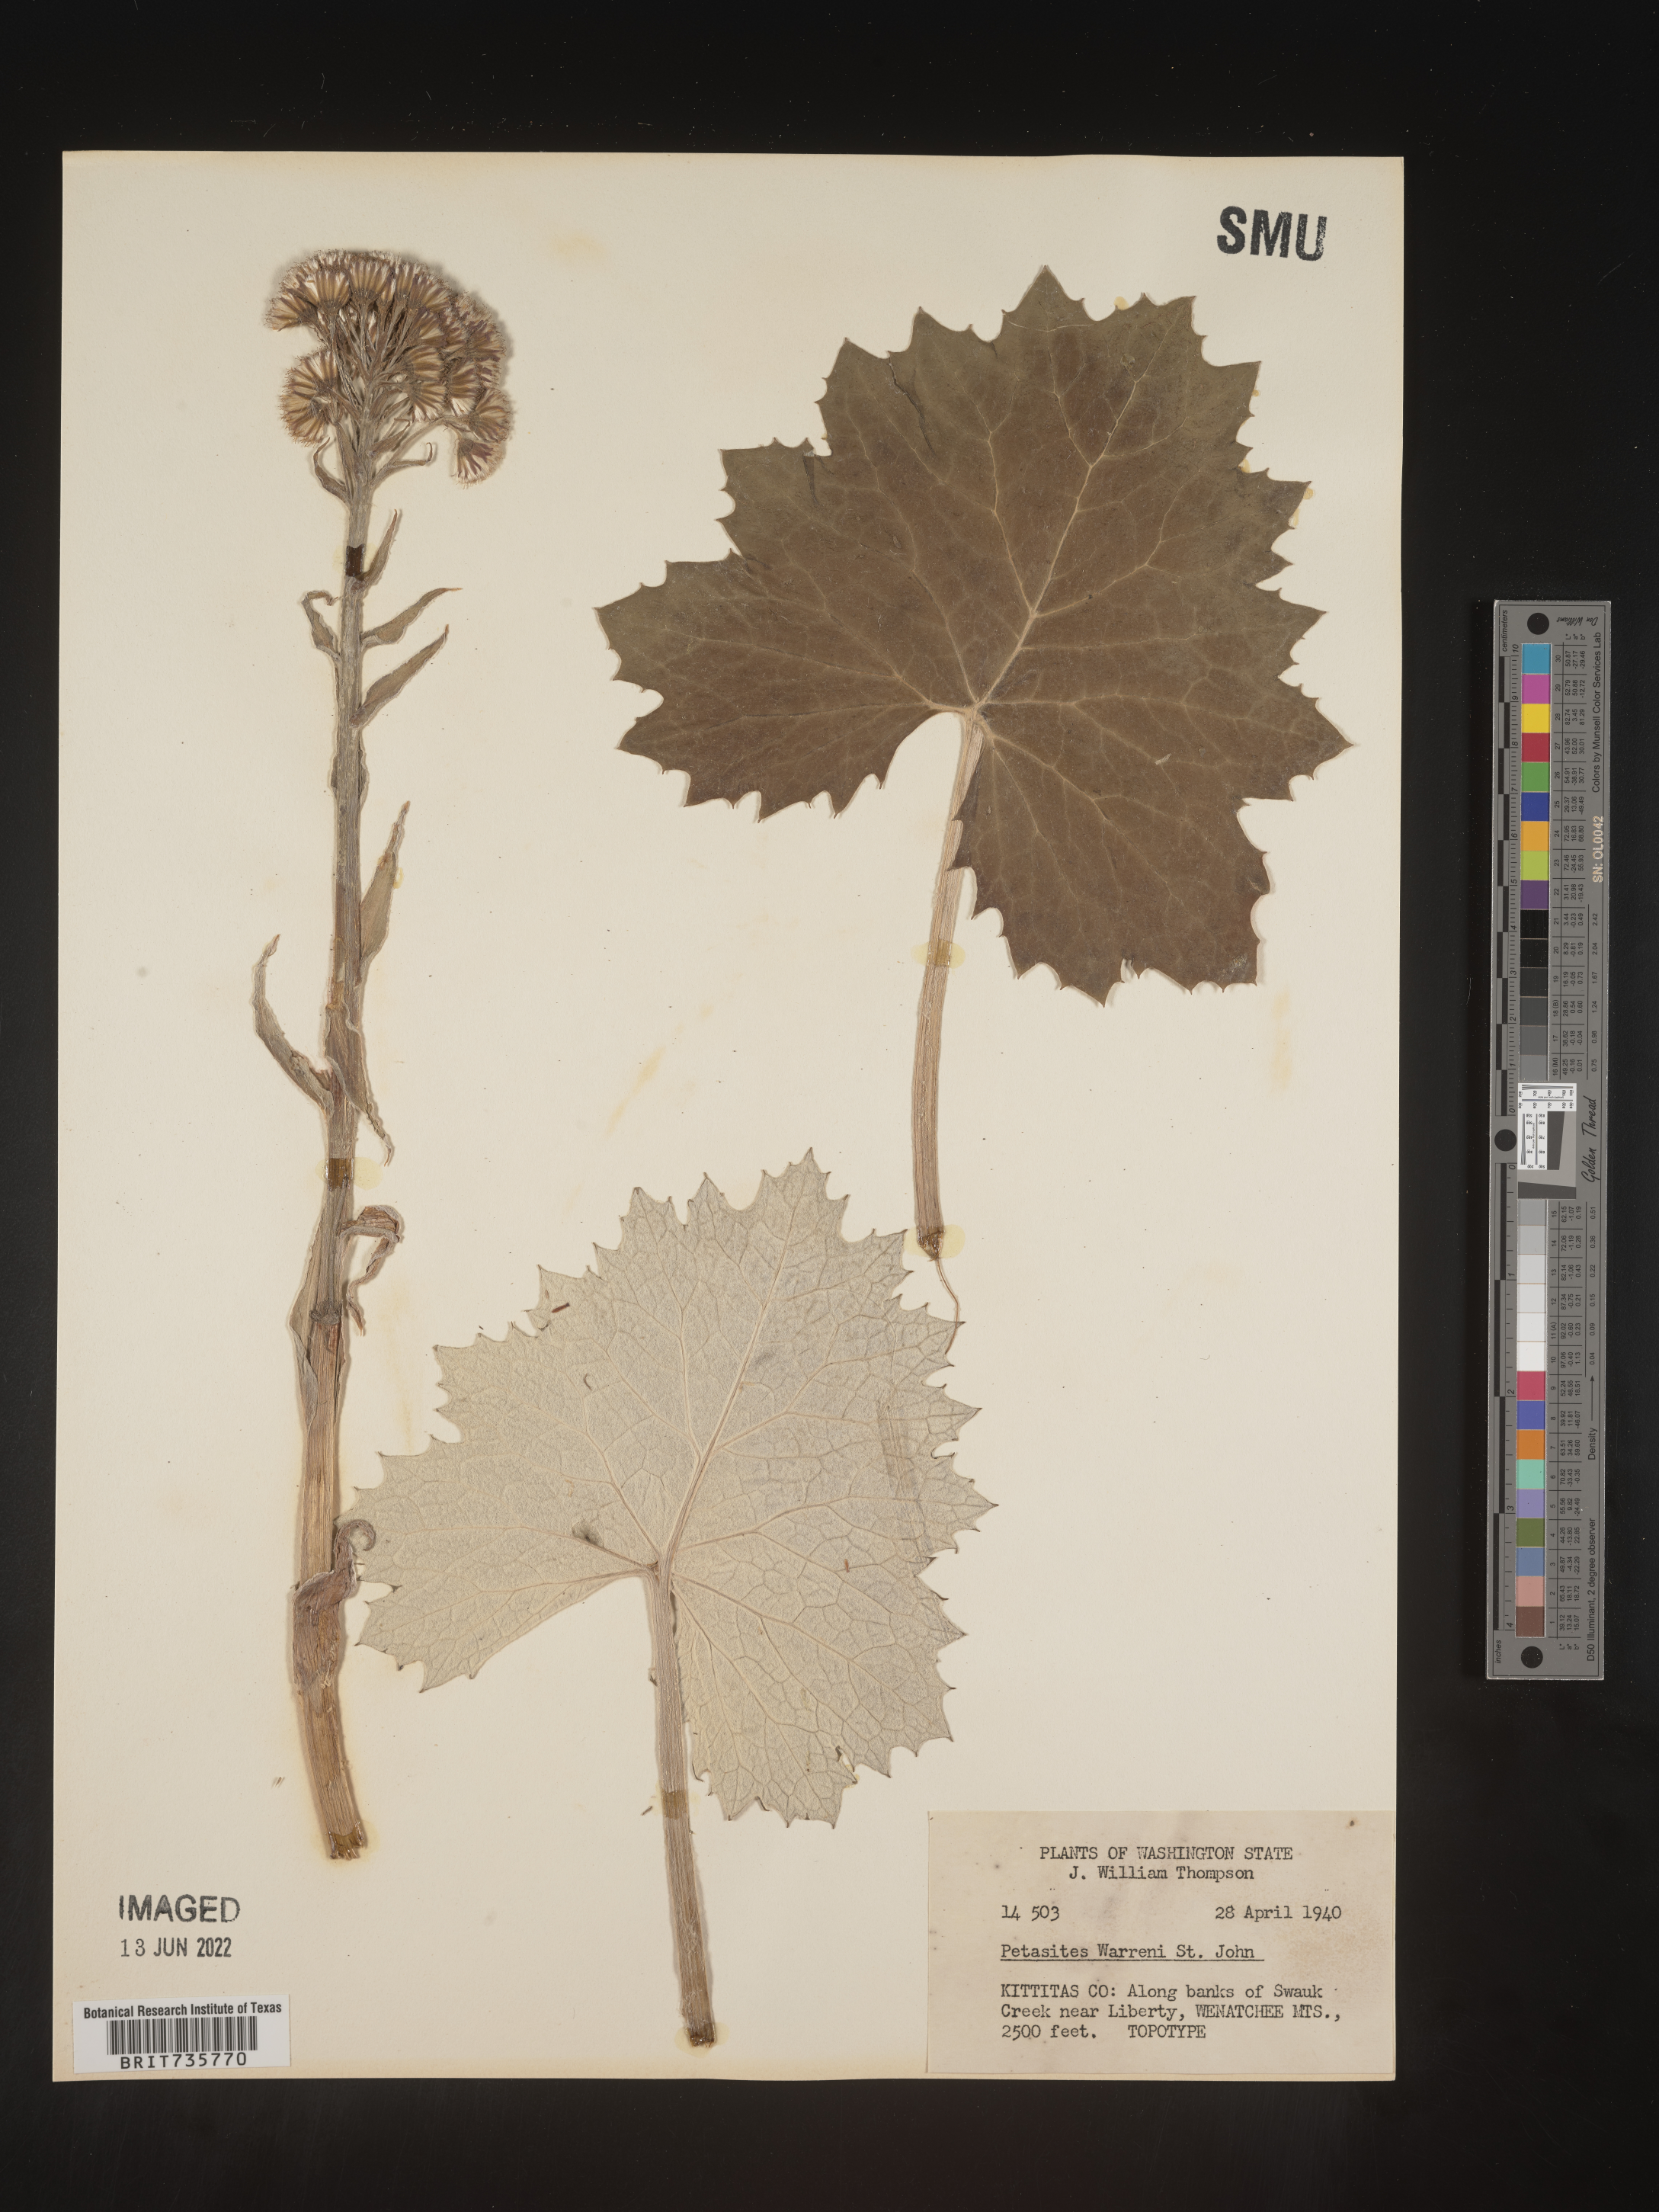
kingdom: Plantae
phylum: Tracheophyta
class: Magnoliopsida
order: Asterales
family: Asteraceae
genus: Petasites
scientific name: Petasites
